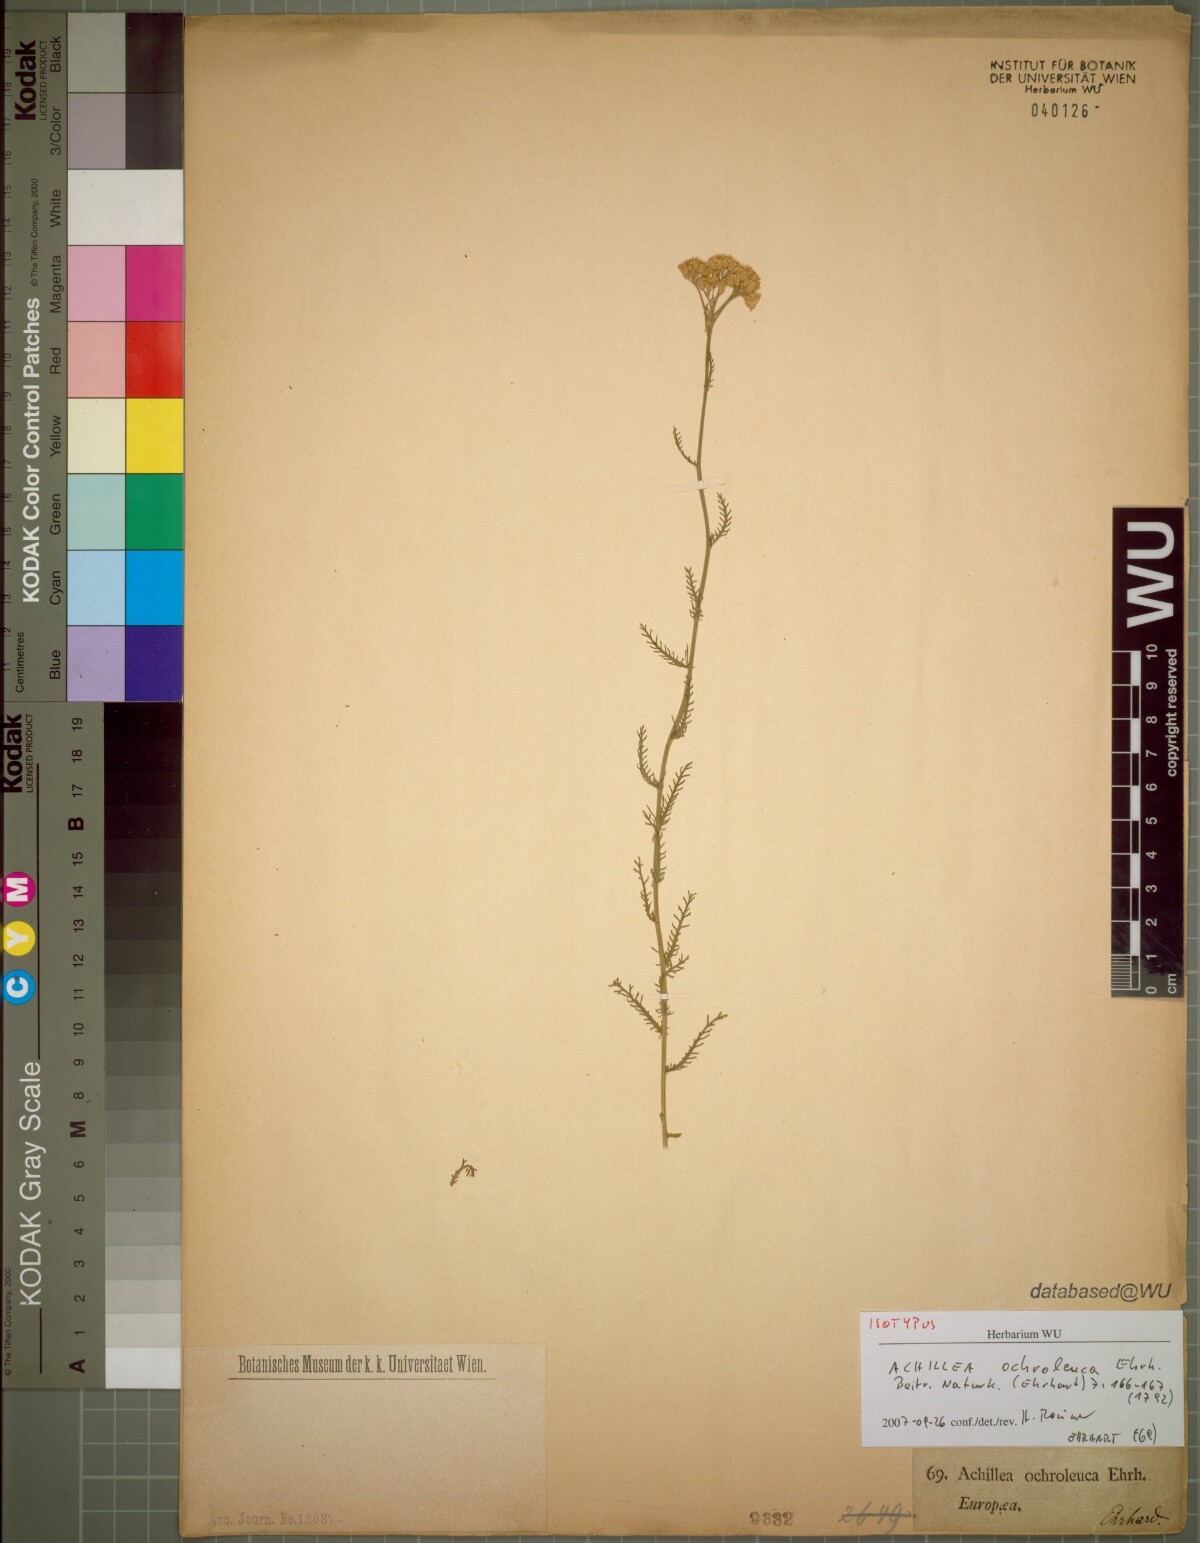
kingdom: Plantae
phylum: Tracheophyta
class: Magnoliopsida
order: Asterales
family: Asteraceae
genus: Achillea
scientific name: Achillea ochroleuca
